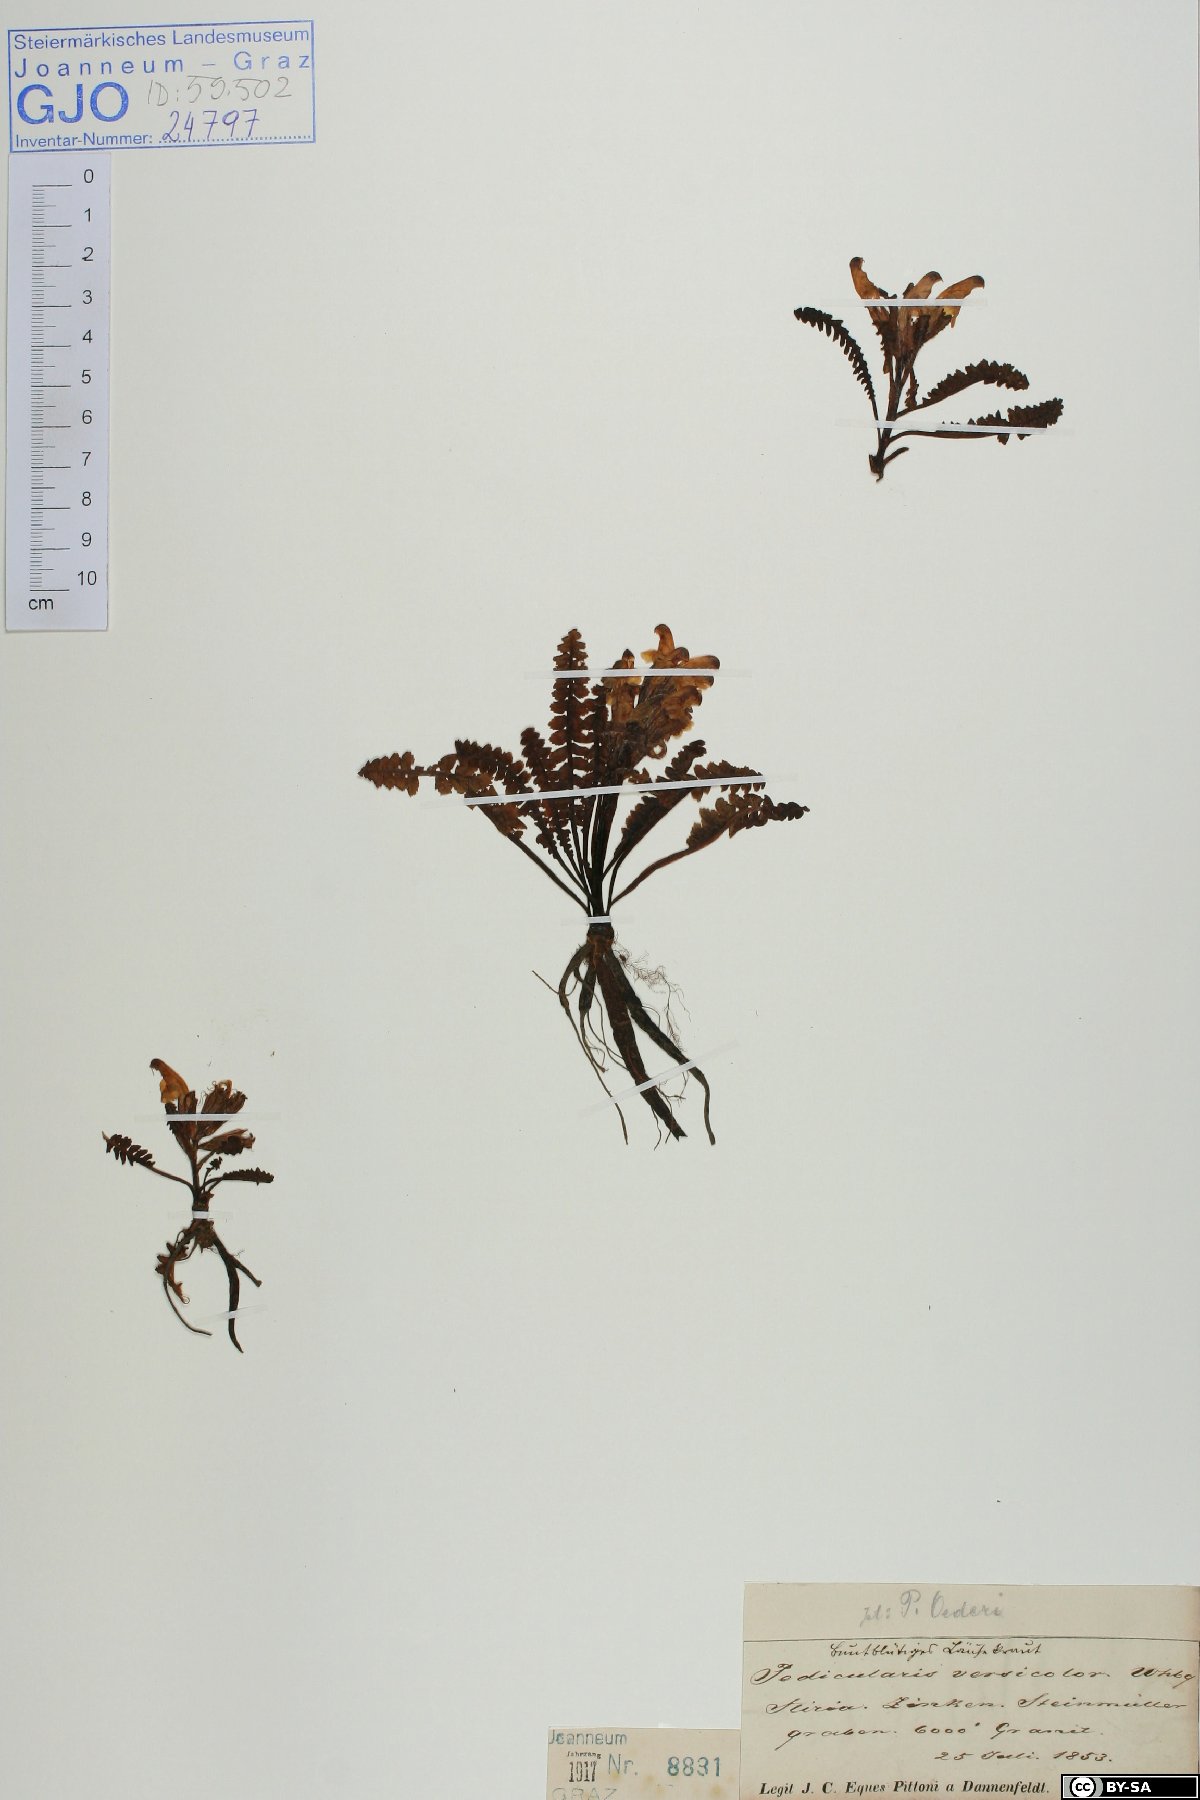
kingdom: Plantae
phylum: Tracheophyta
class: Magnoliopsida
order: Lamiales
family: Orobanchaceae
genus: Pedicularis
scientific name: Pedicularis oederi
